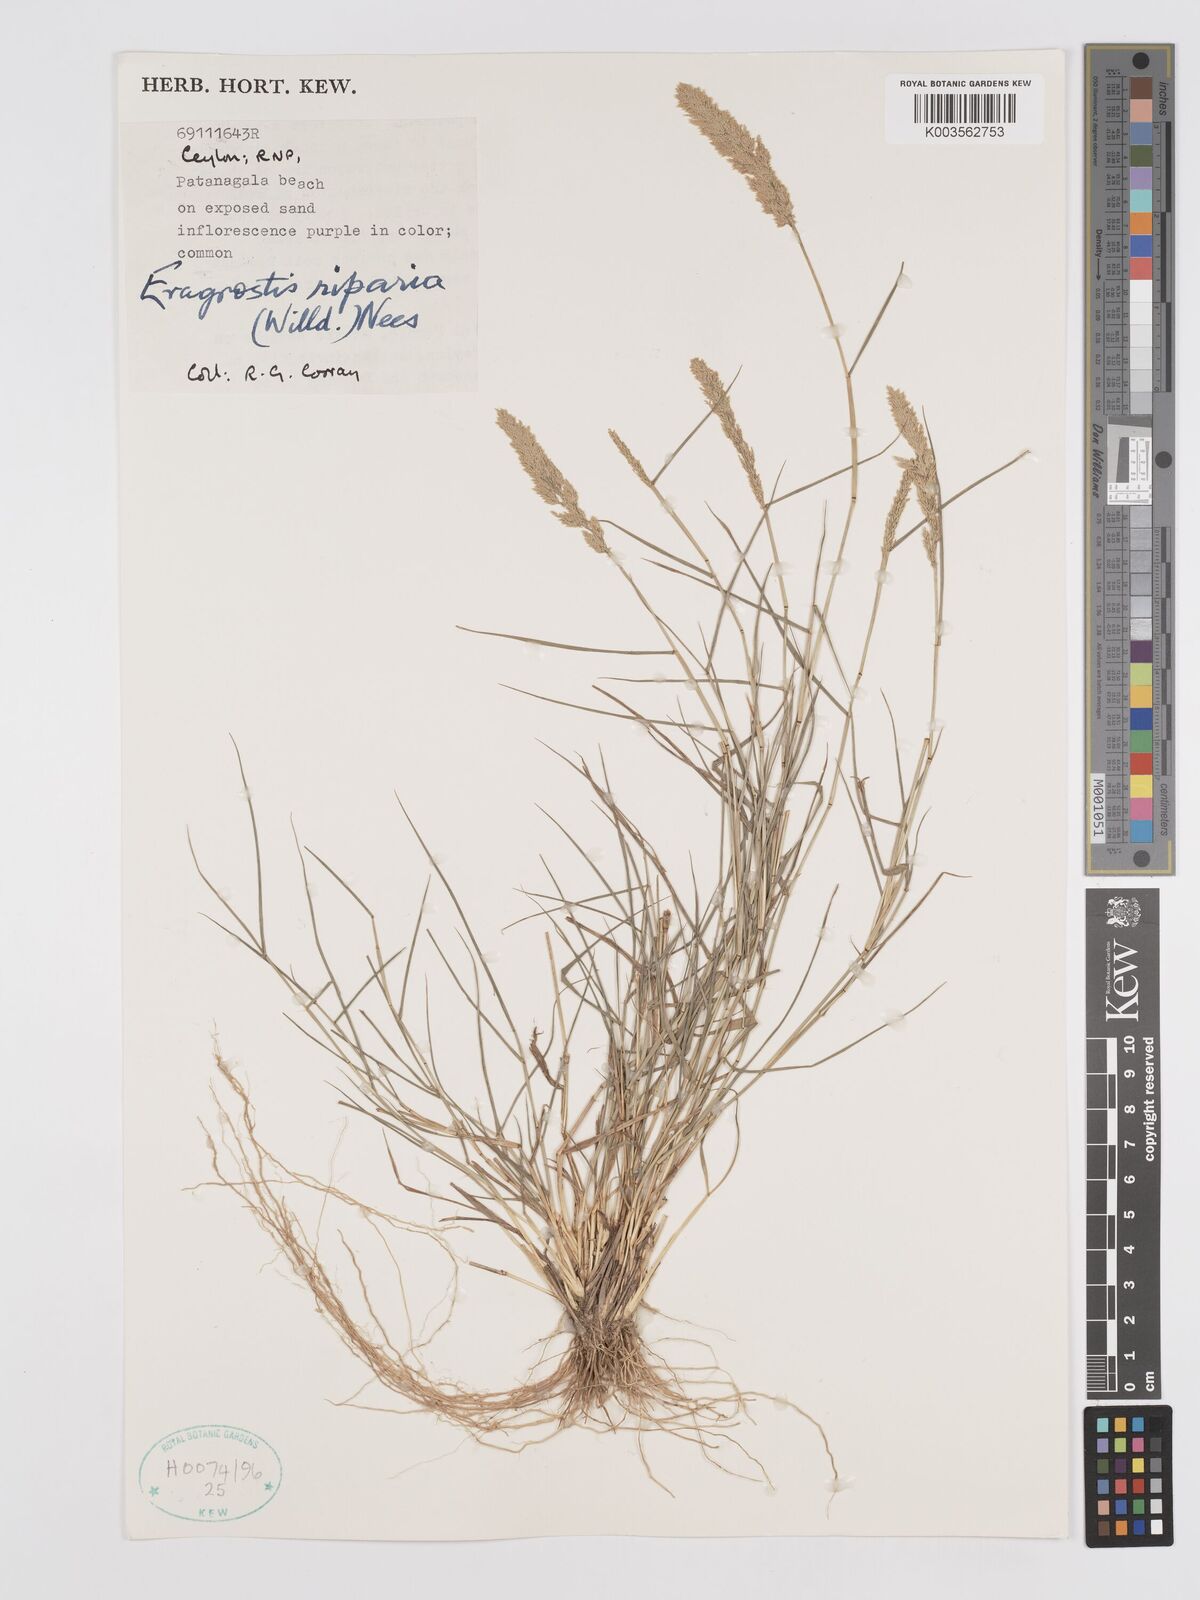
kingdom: Plantae
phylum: Tracheophyta
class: Liliopsida
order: Poales
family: Poaceae
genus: Eragrostis
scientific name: Eragrostis riparia
